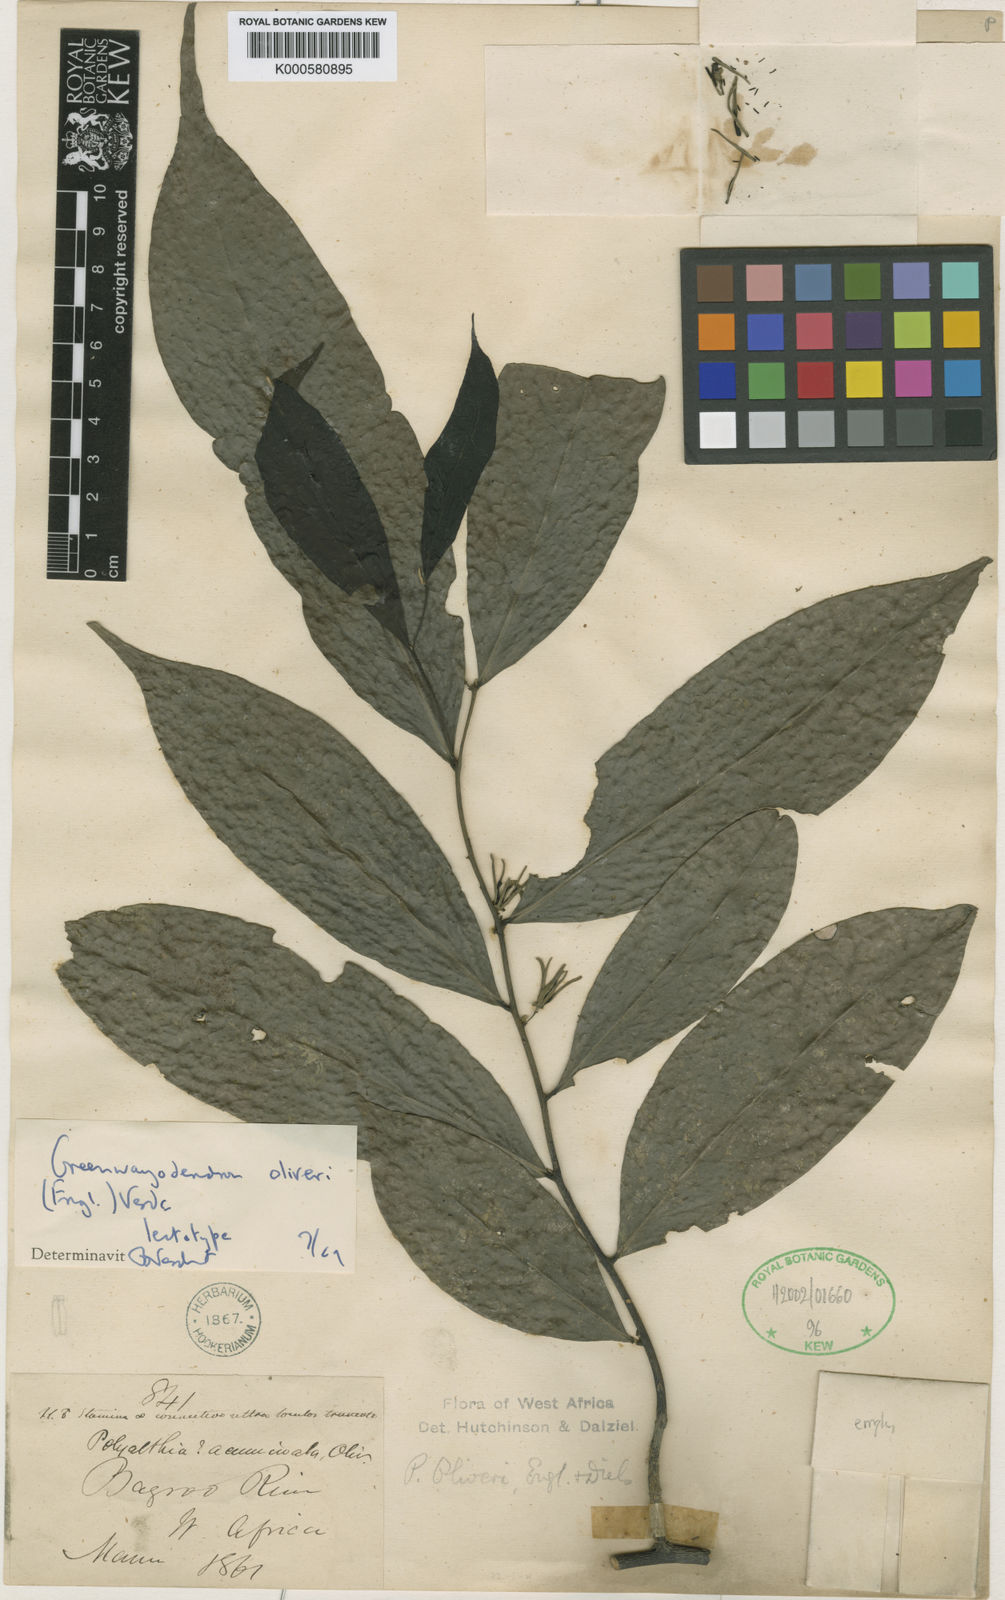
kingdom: Plantae
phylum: Tracheophyta
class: Magnoliopsida
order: Magnoliales
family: Annonaceae
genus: Greenwayodendron
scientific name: Greenwayodendron oliveri
